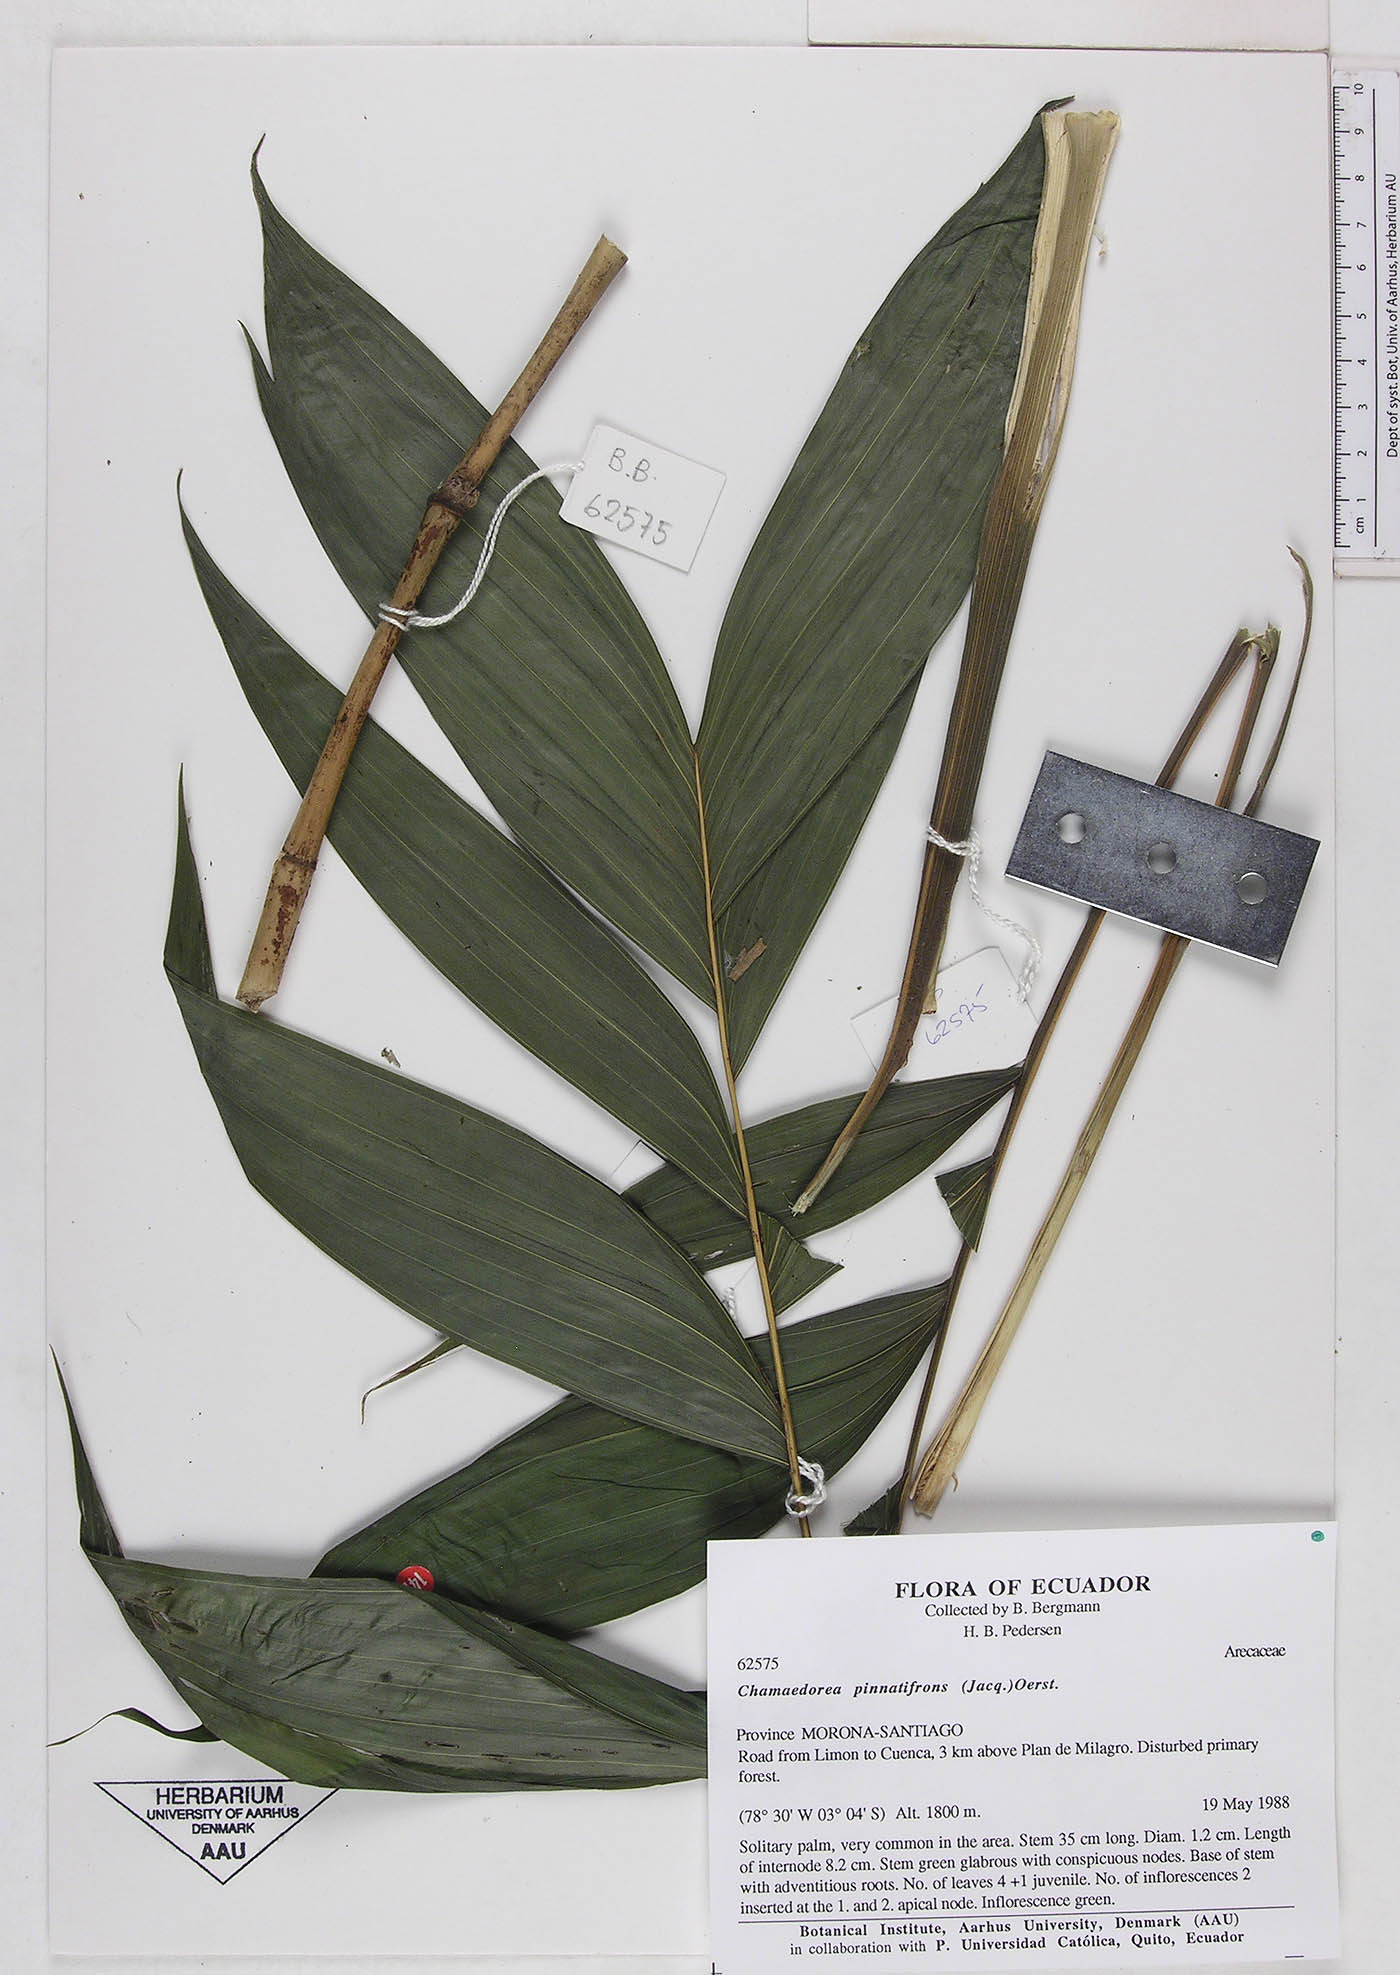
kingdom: Plantae
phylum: Tracheophyta
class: Liliopsida
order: Arecales
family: Arecaceae
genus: Chamaedorea
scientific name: Chamaedorea pinnatifrons
